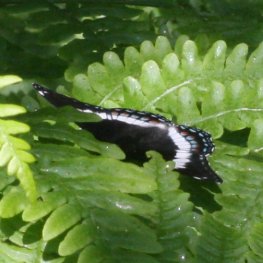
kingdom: Animalia
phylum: Arthropoda
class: Insecta
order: Lepidoptera
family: Nymphalidae
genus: Limenitis
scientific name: Limenitis arthemis
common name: Red-spotted Admiral
